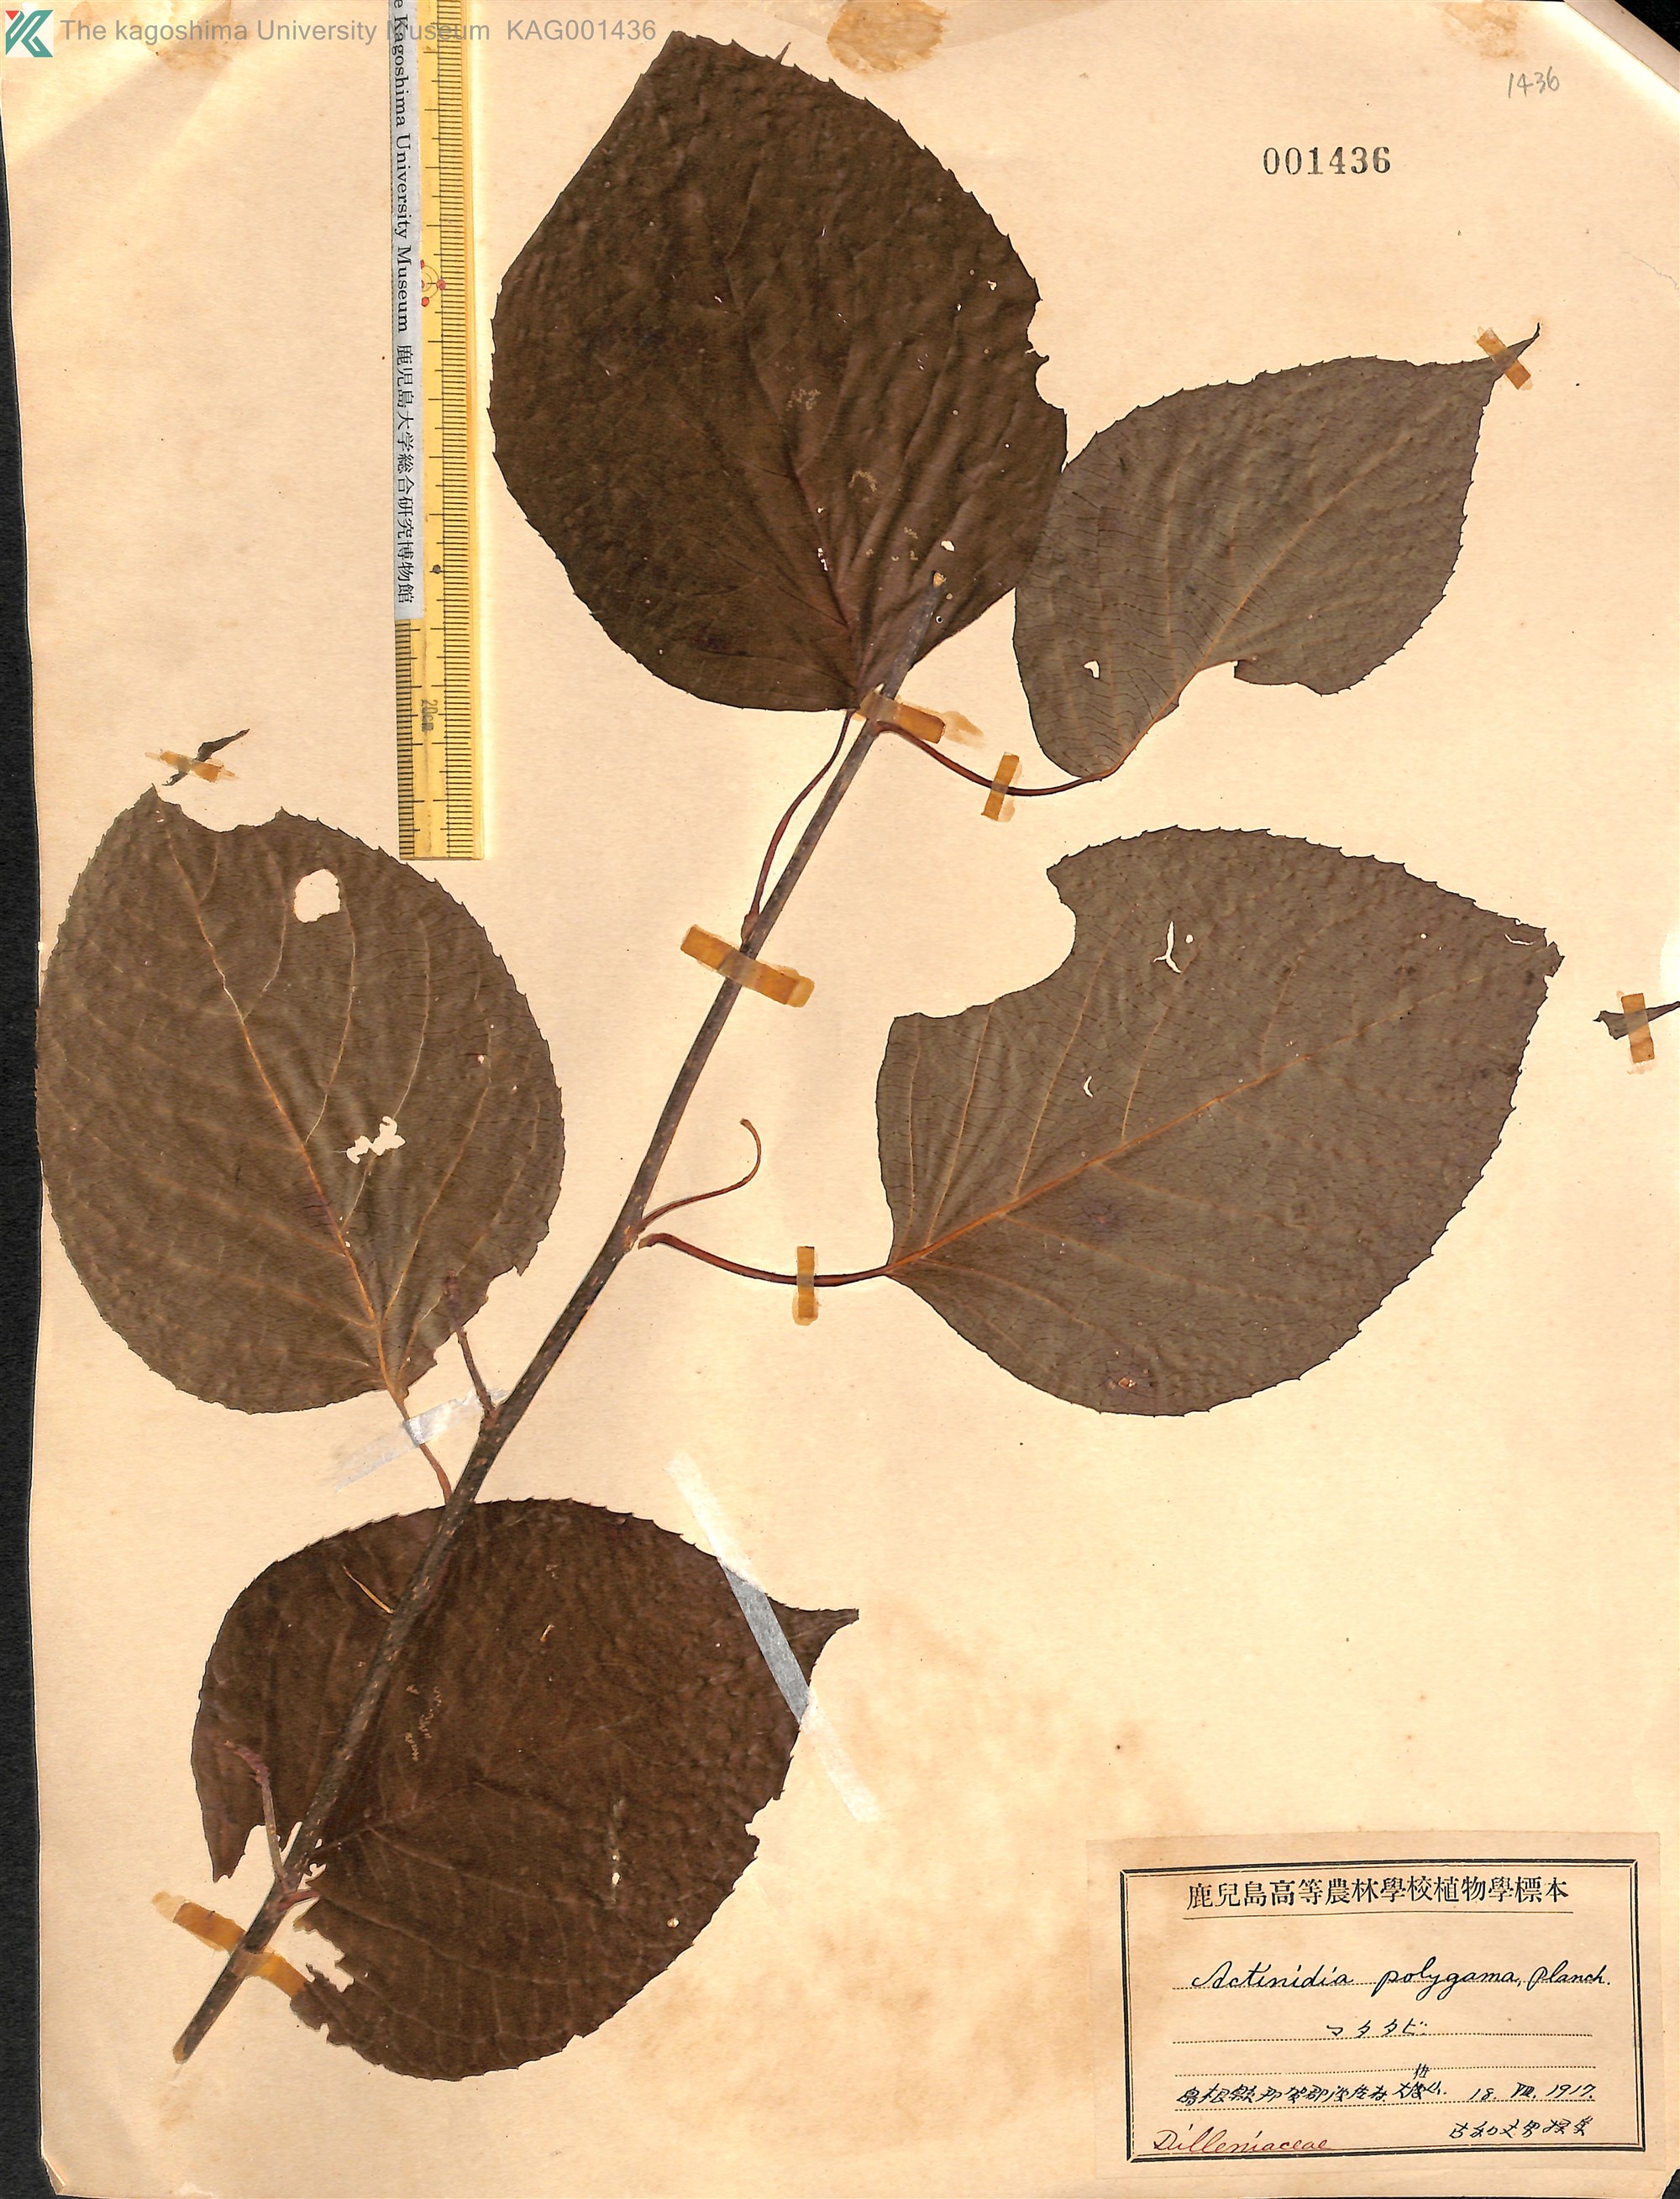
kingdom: Plantae
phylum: Tracheophyta
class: Magnoliopsida
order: Ericales
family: Actinidiaceae
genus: Actinidia
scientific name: Actinidia polygama
